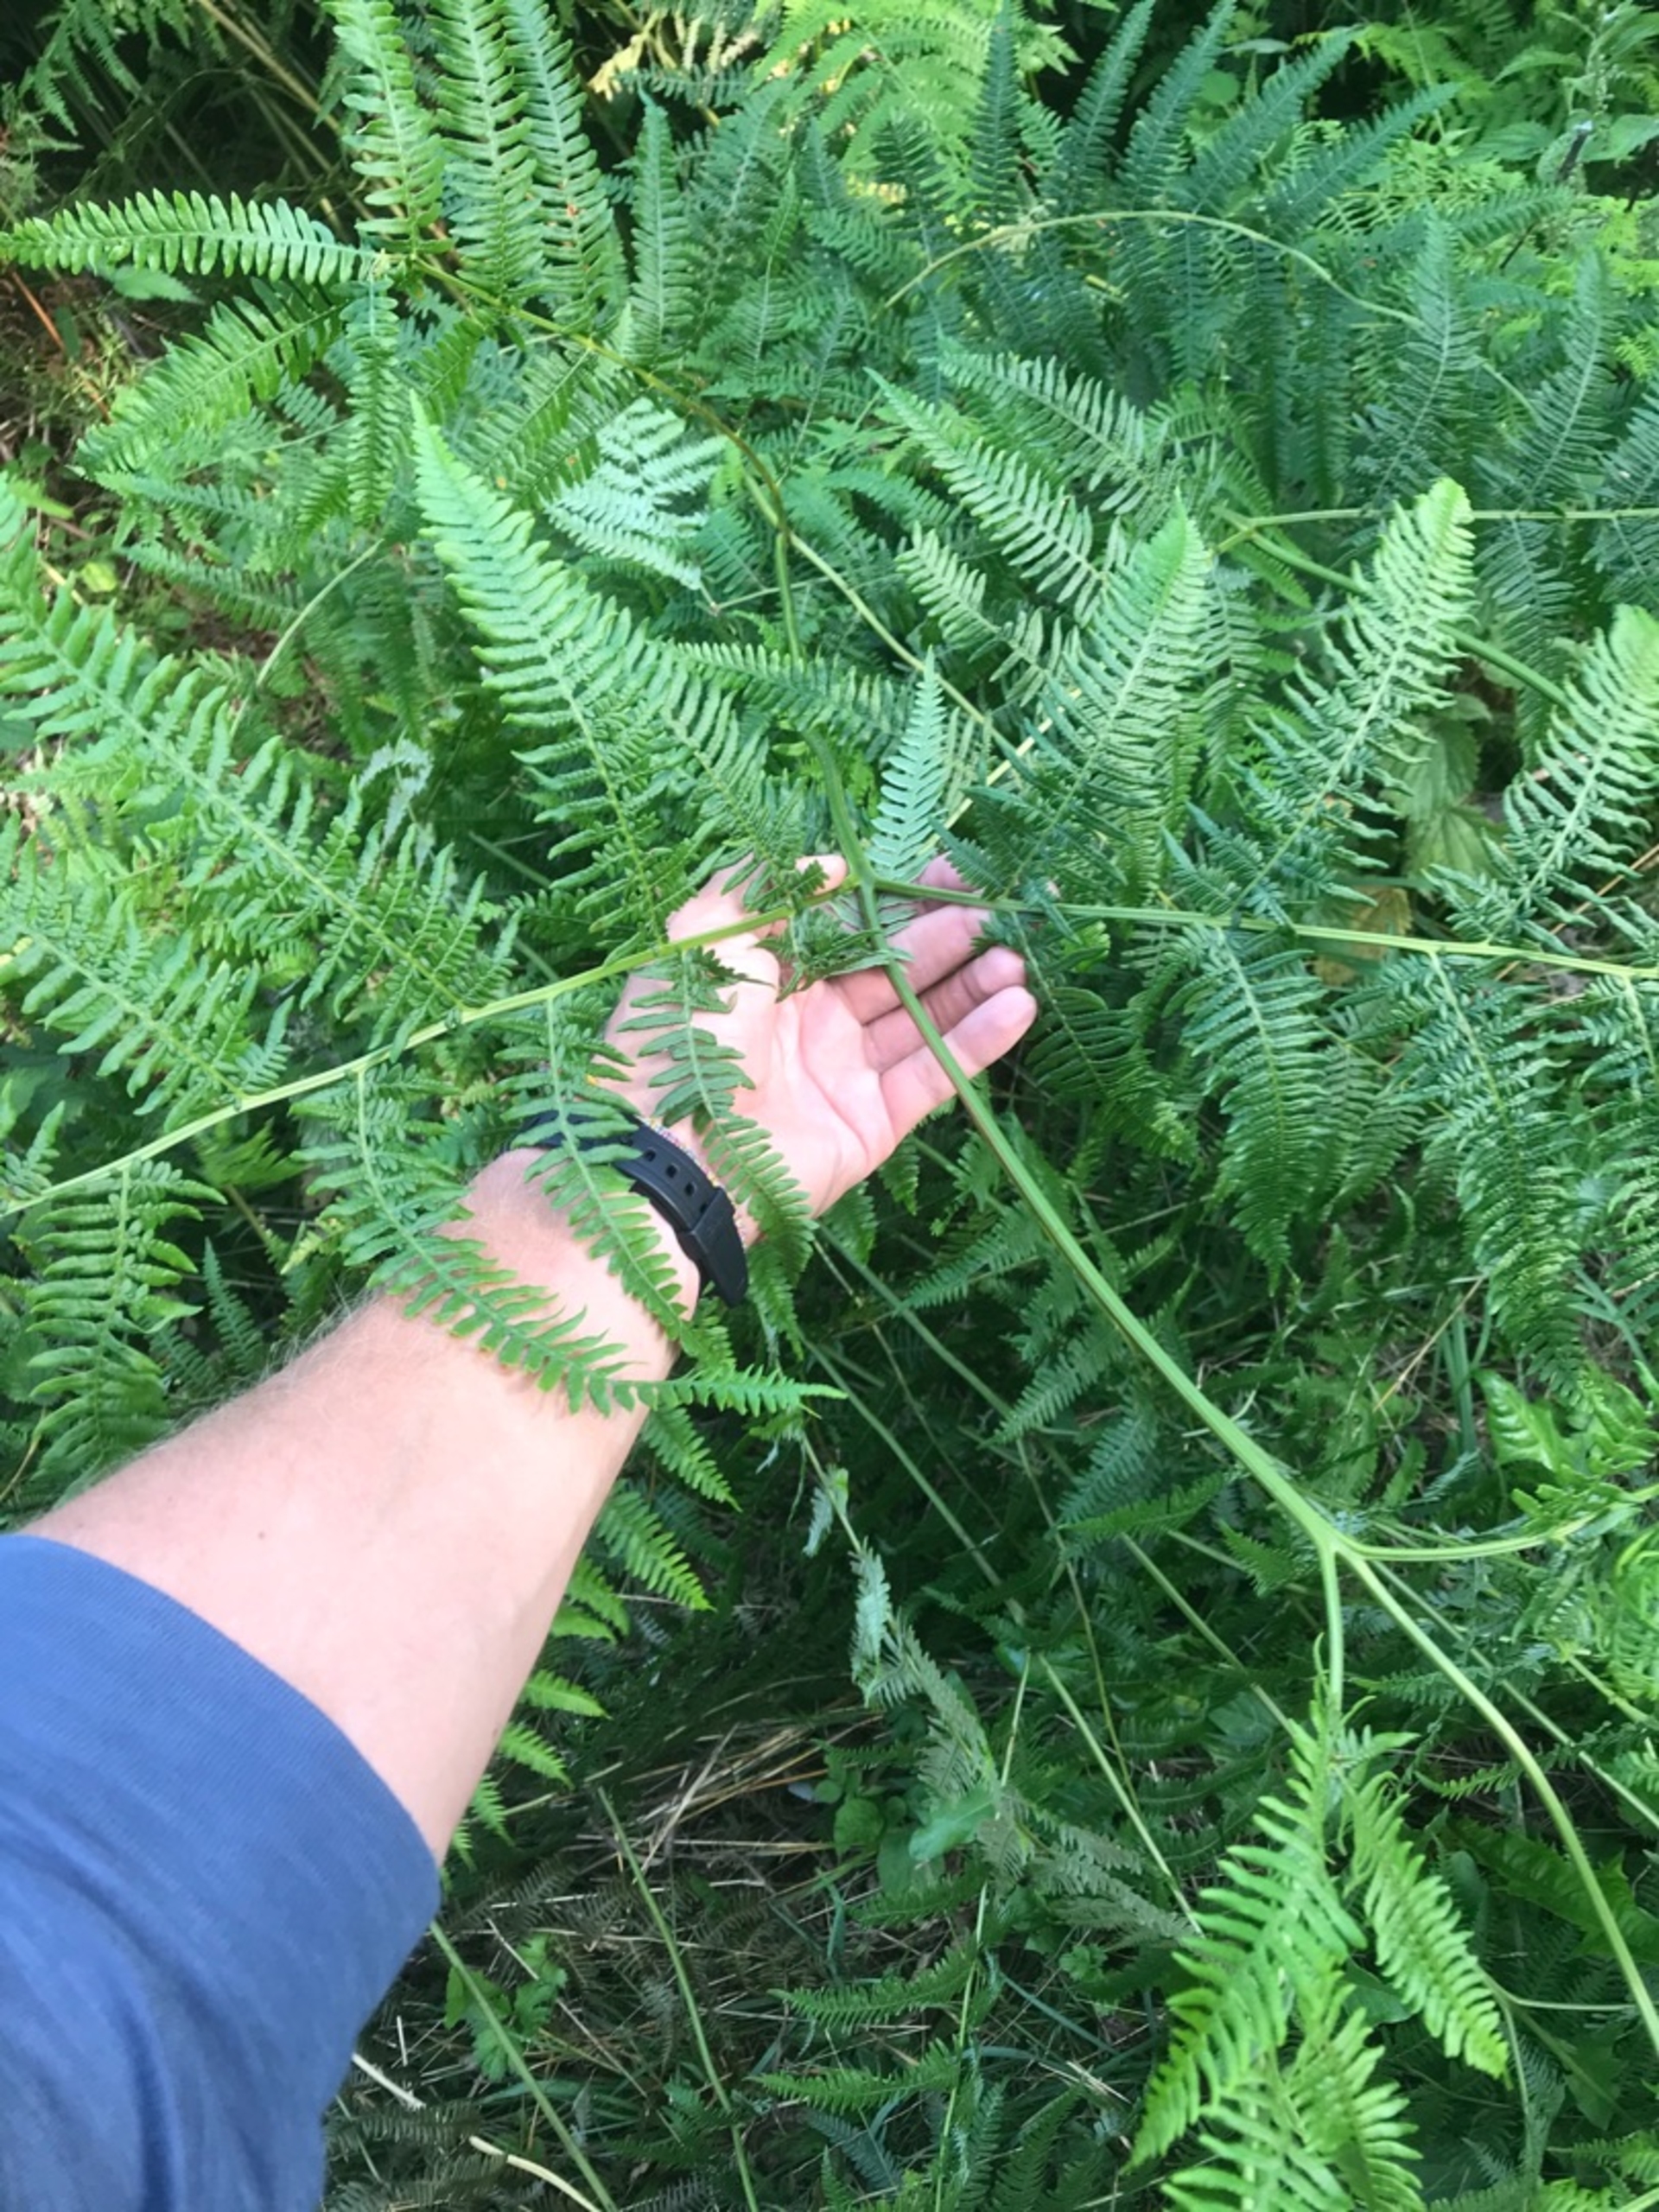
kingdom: Plantae
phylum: Tracheophyta
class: Polypodiopsida
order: Polypodiales
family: Dennstaedtiaceae
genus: Pteridium
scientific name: Pteridium aquilinum
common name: Ørnebregne
